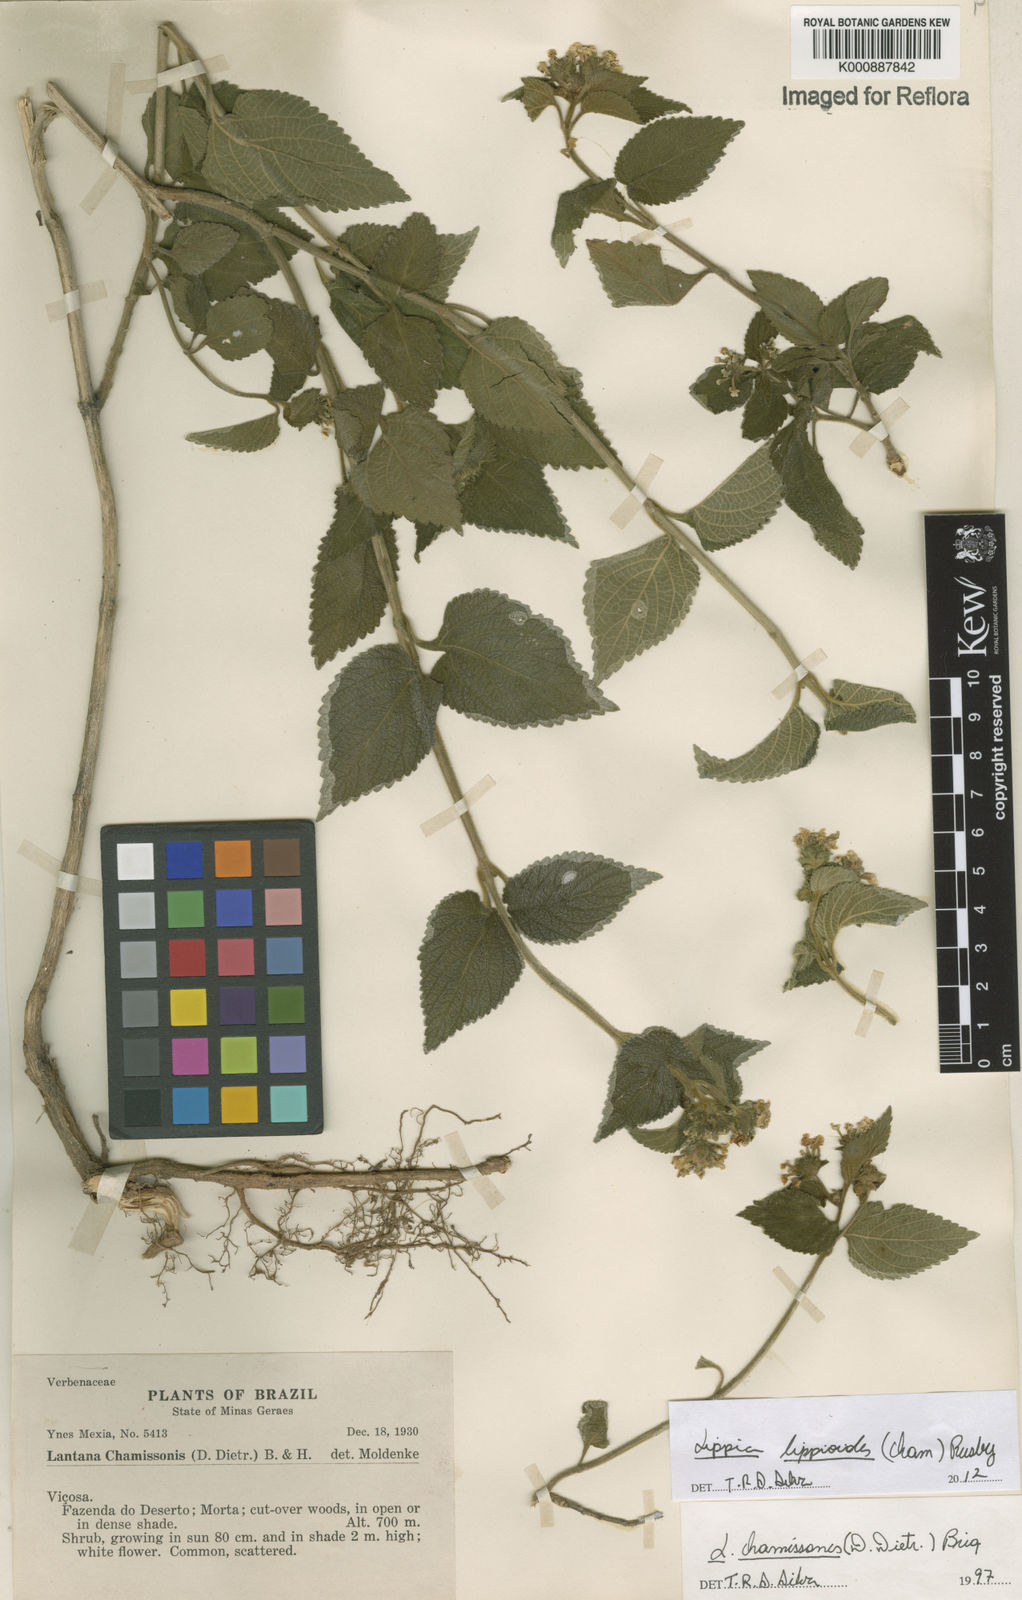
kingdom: Plantae
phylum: Tracheophyta
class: Magnoliopsida
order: Lamiales
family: Verbenaceae
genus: Lippia
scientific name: Lippia lippioides
